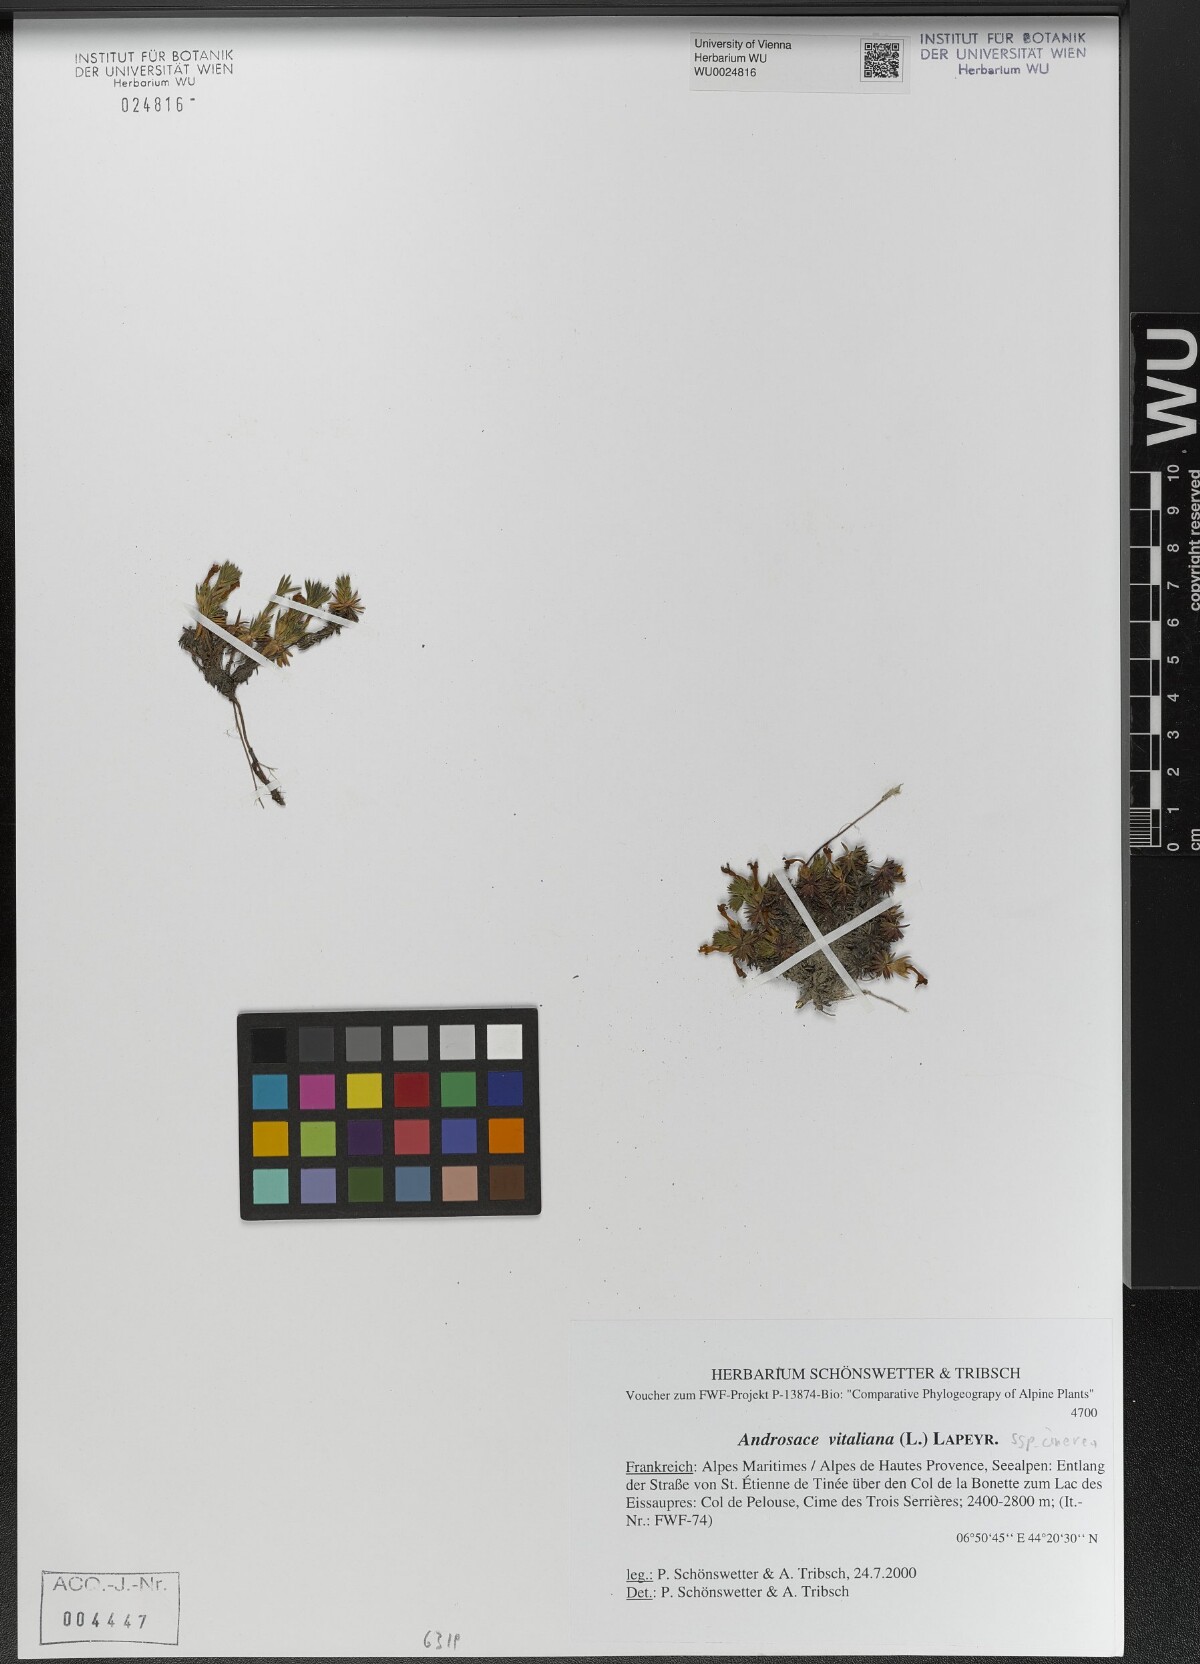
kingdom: Plantae
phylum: Tracheophyta
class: Magnoliopsida
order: Ericales
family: Primulaceae
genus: Androsace
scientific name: Androsace vitaliana
